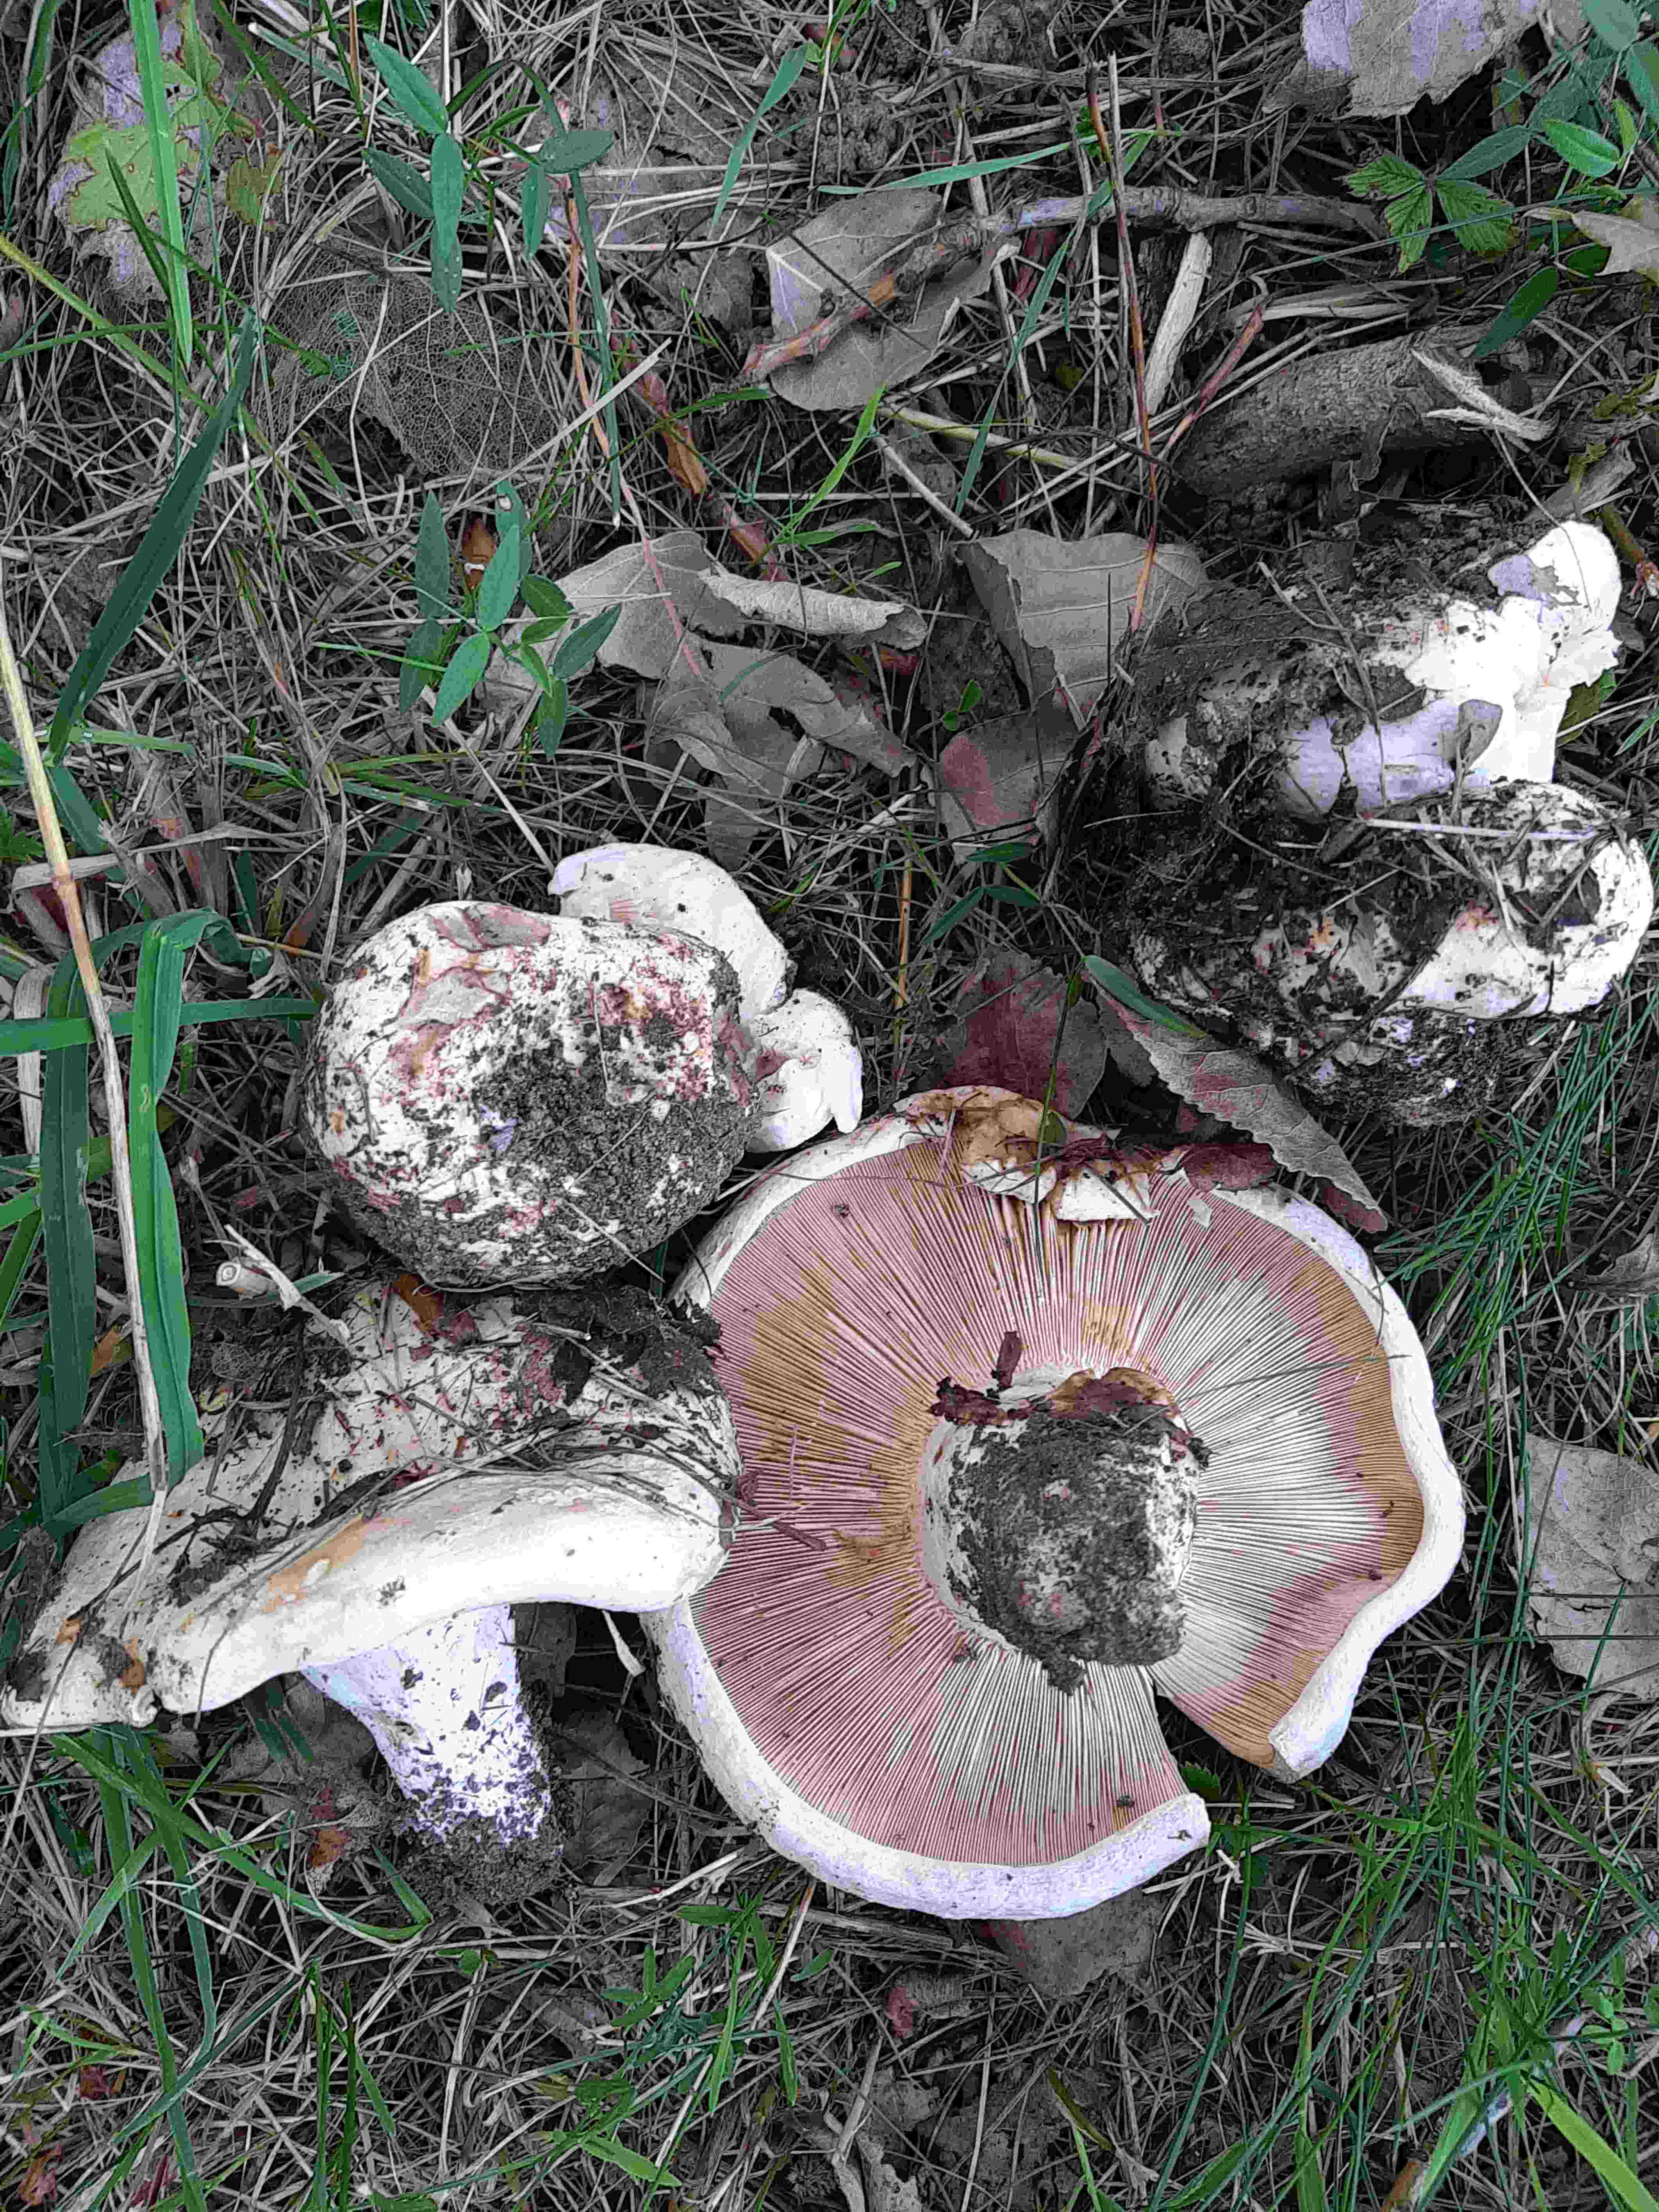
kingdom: Fungi
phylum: Basidiomycota
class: Agaricomycetes
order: Russulales
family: Russulaceae
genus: Lactarius
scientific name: Lactarius controversus
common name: rosabladet mælkehat
